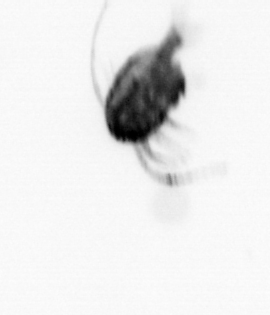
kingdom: Animalia
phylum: Arthropoda
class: Copepoda
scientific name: Copepoda
